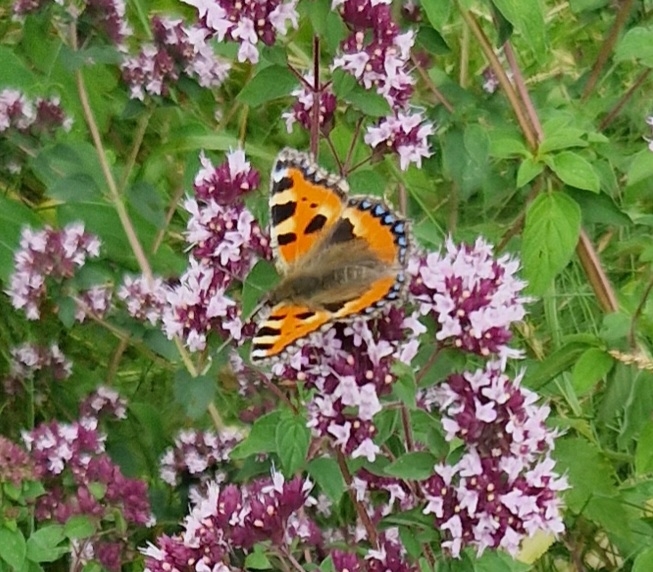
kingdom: Animalia
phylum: Arthropoda
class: Insecta
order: Lepidoptera
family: Nymphalidae
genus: Aglais
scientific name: Aglais urticae
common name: Nældens takvinge
